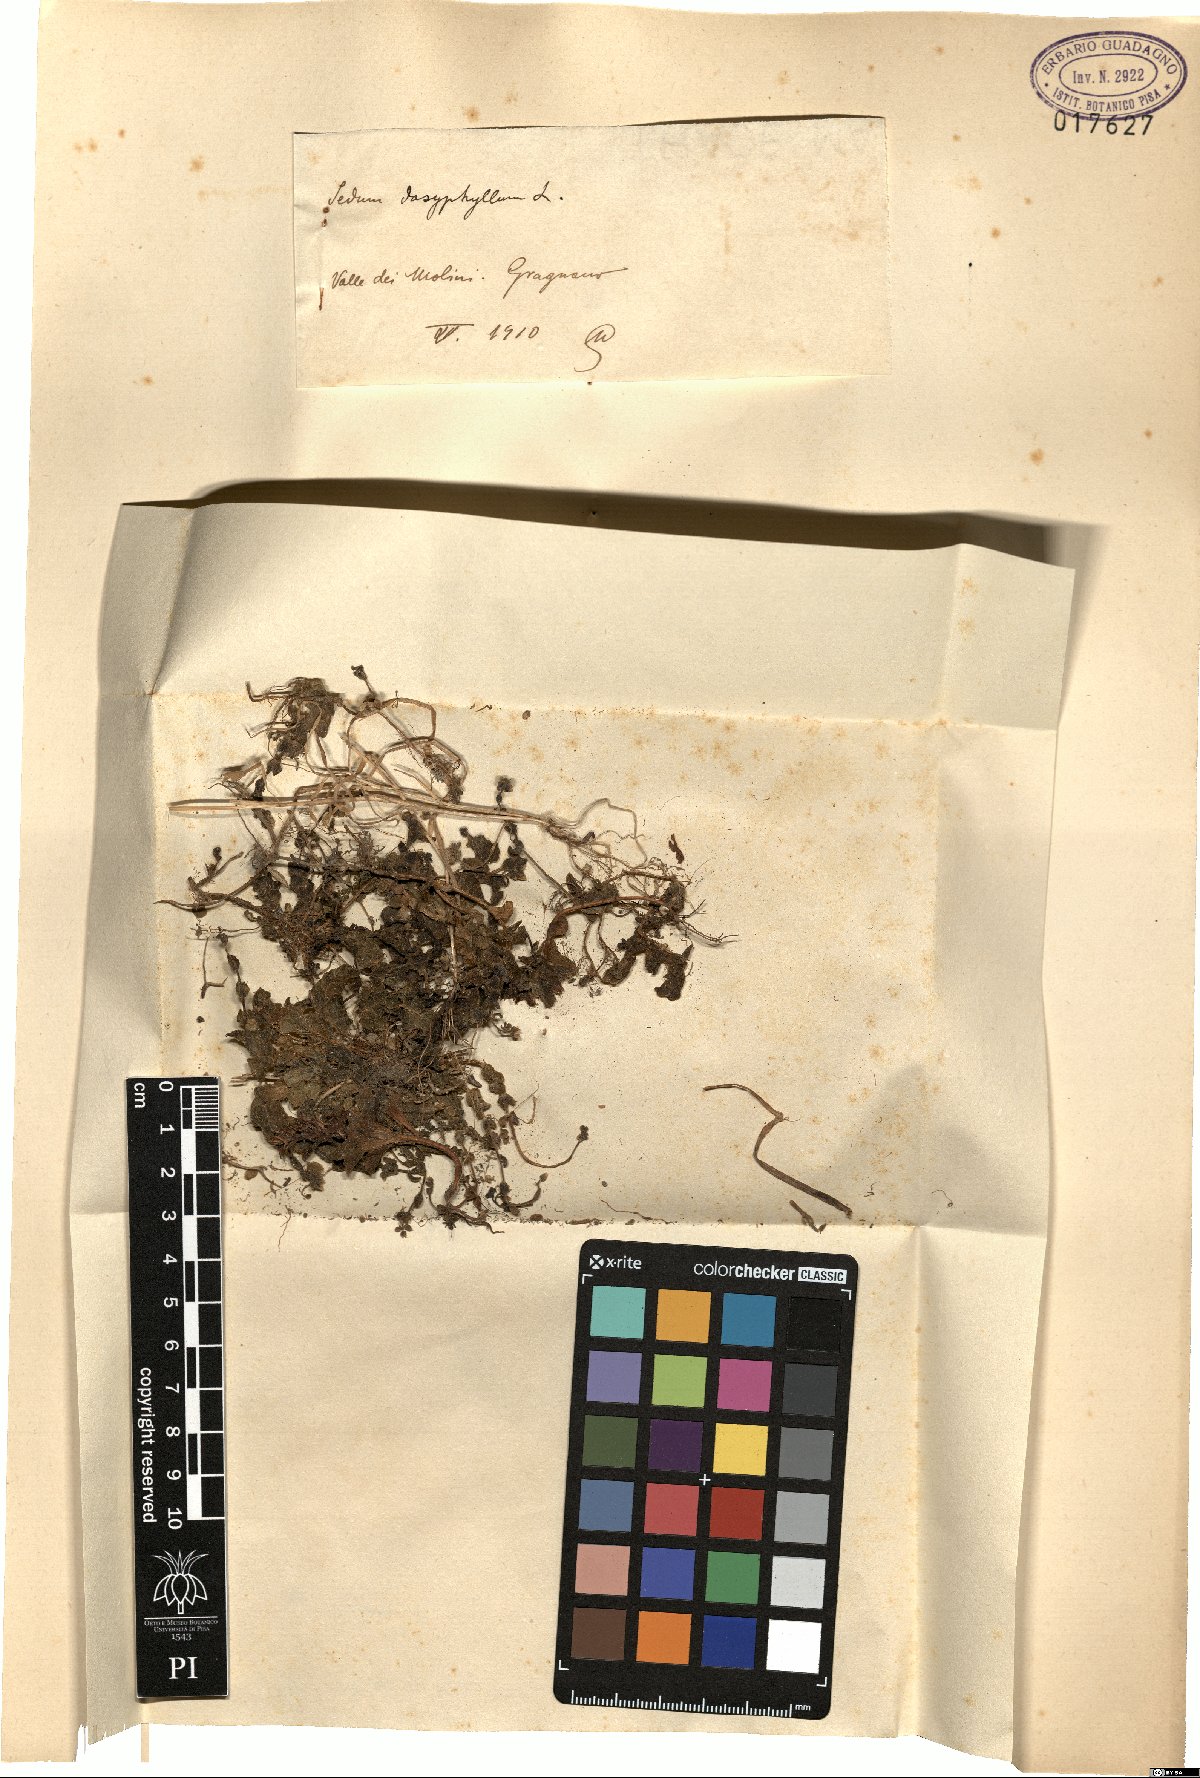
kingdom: Plantae
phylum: Tracheophyta
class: Magnoliopsida
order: Saxifragales
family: Crassulaceae
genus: Sedum
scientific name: Sedum dasyphyllum
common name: Thick-leaf stonecrop
